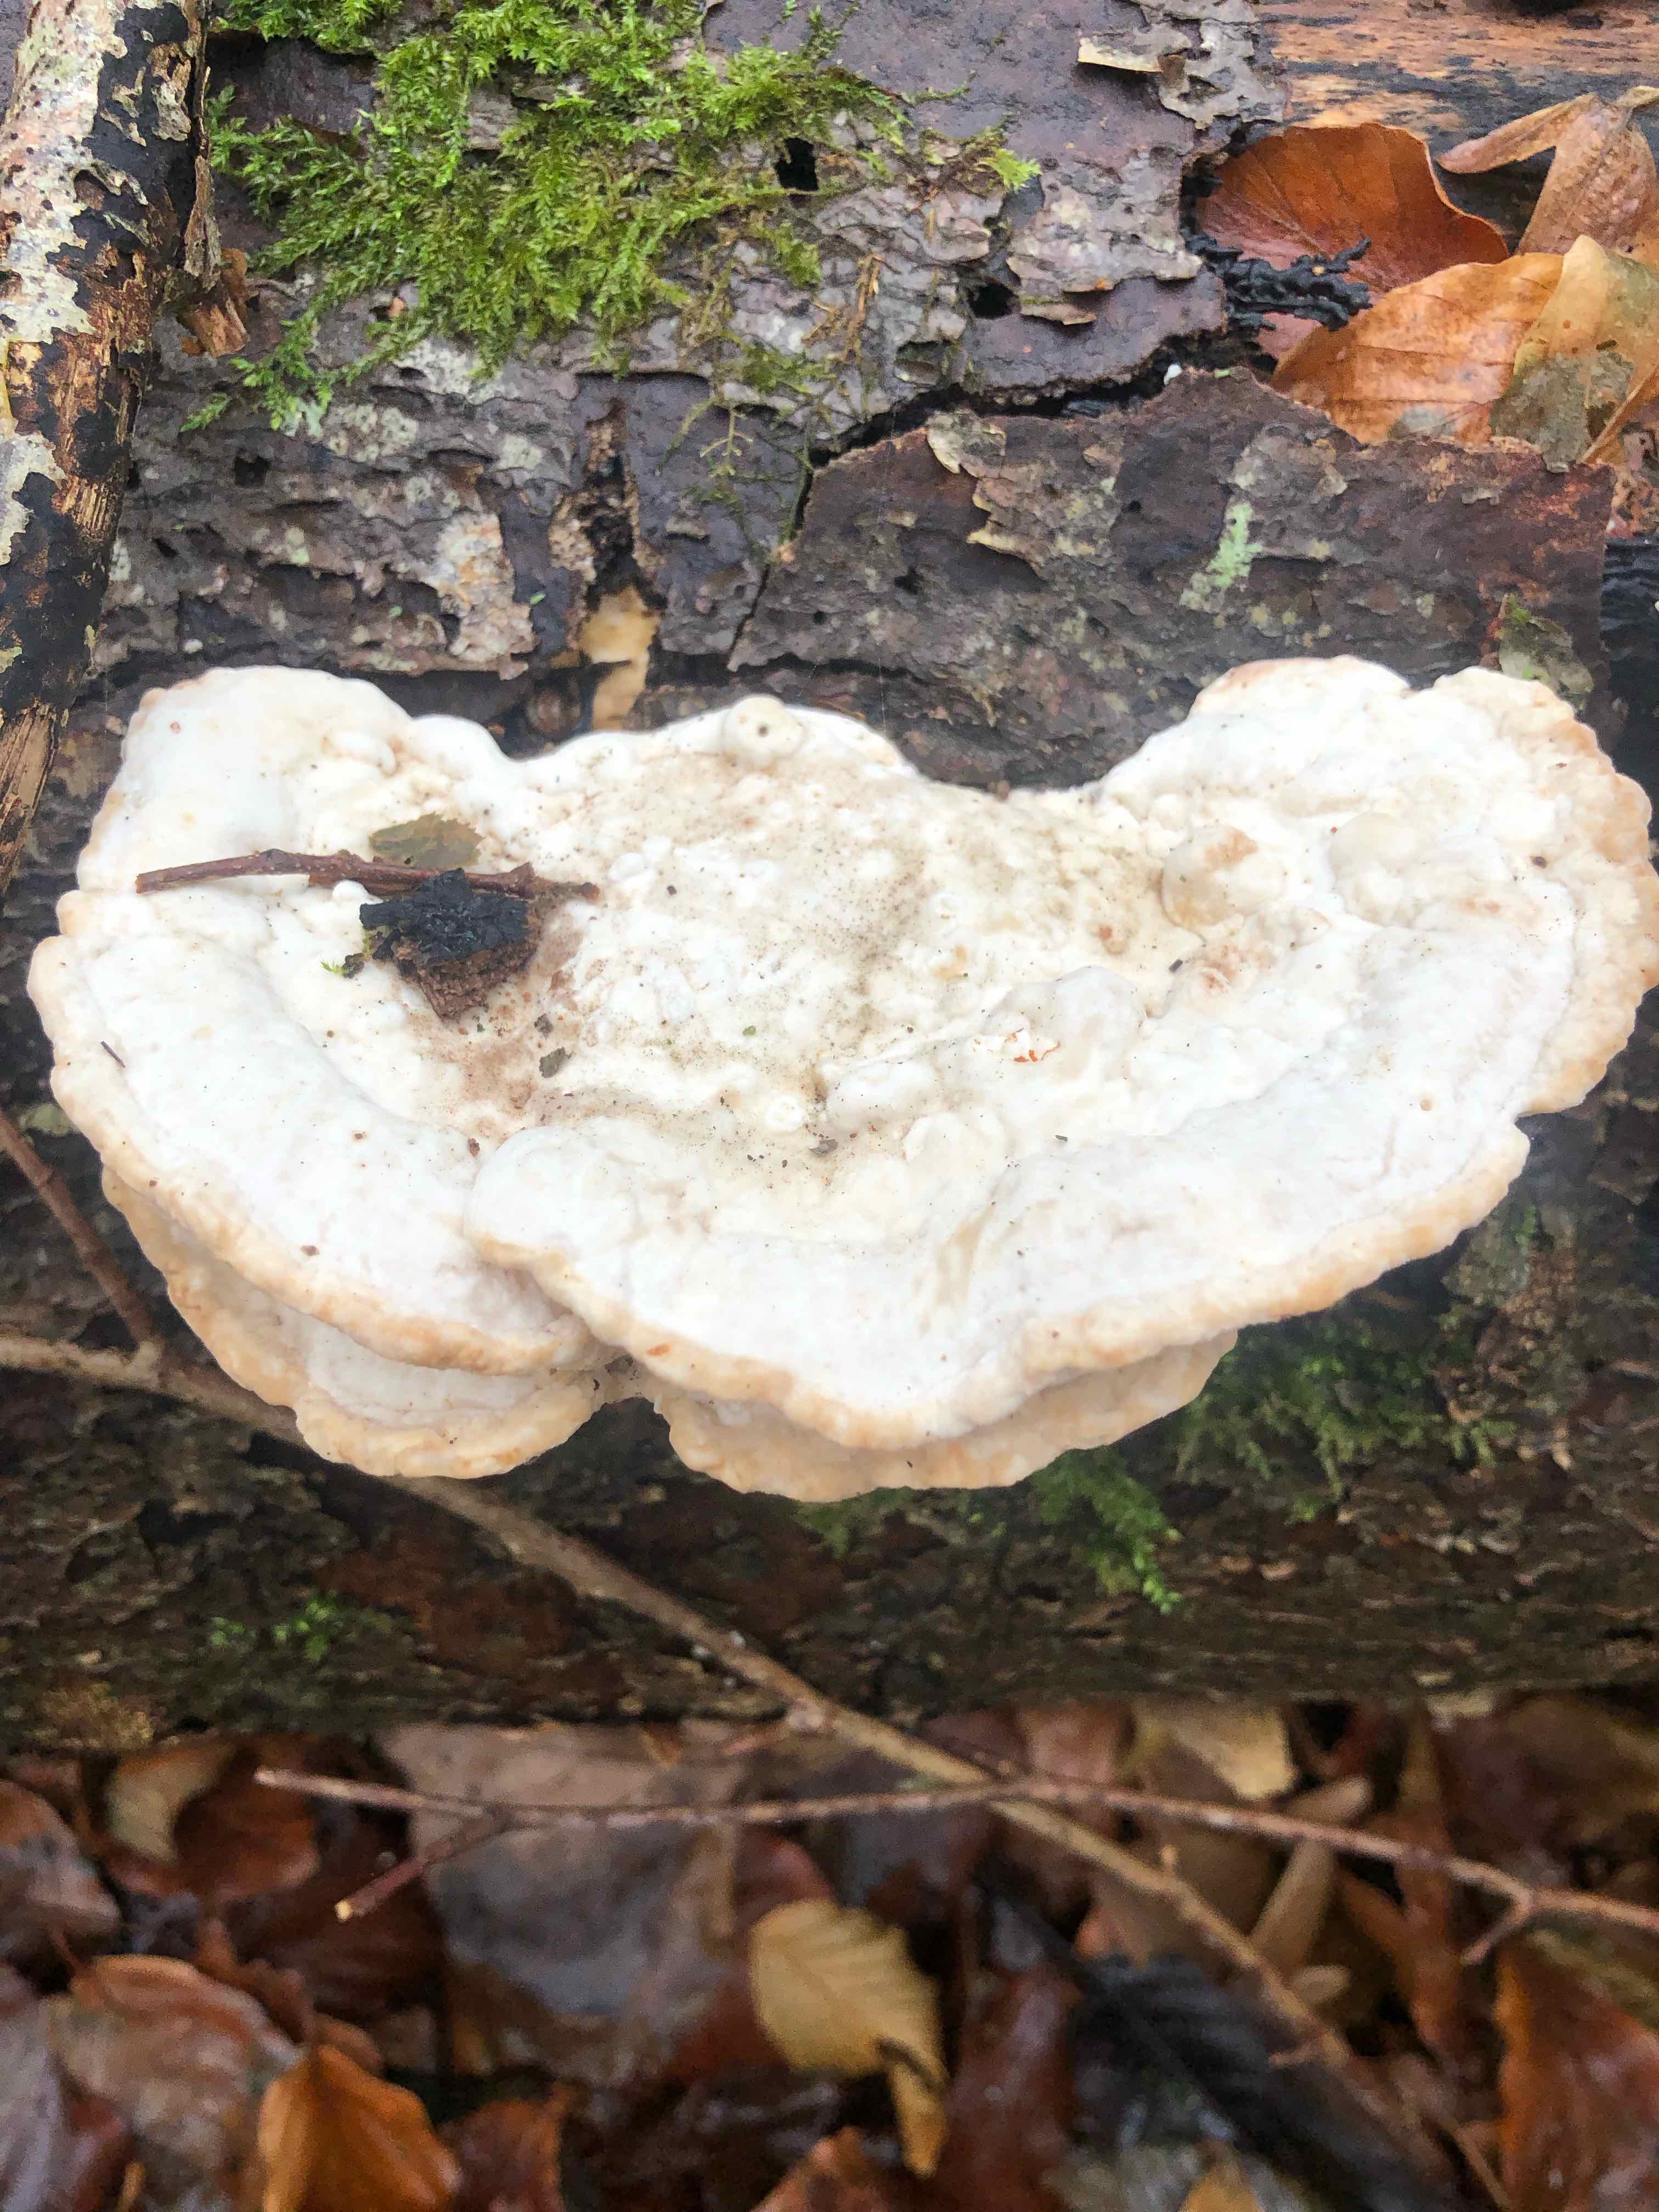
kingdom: Fungi
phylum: Basidiomycota
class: Agaricomycetes
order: Polyporales
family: Polyporaceae
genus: Trametes
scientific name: Trametes gibbosa
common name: puklet læderporesvamp
